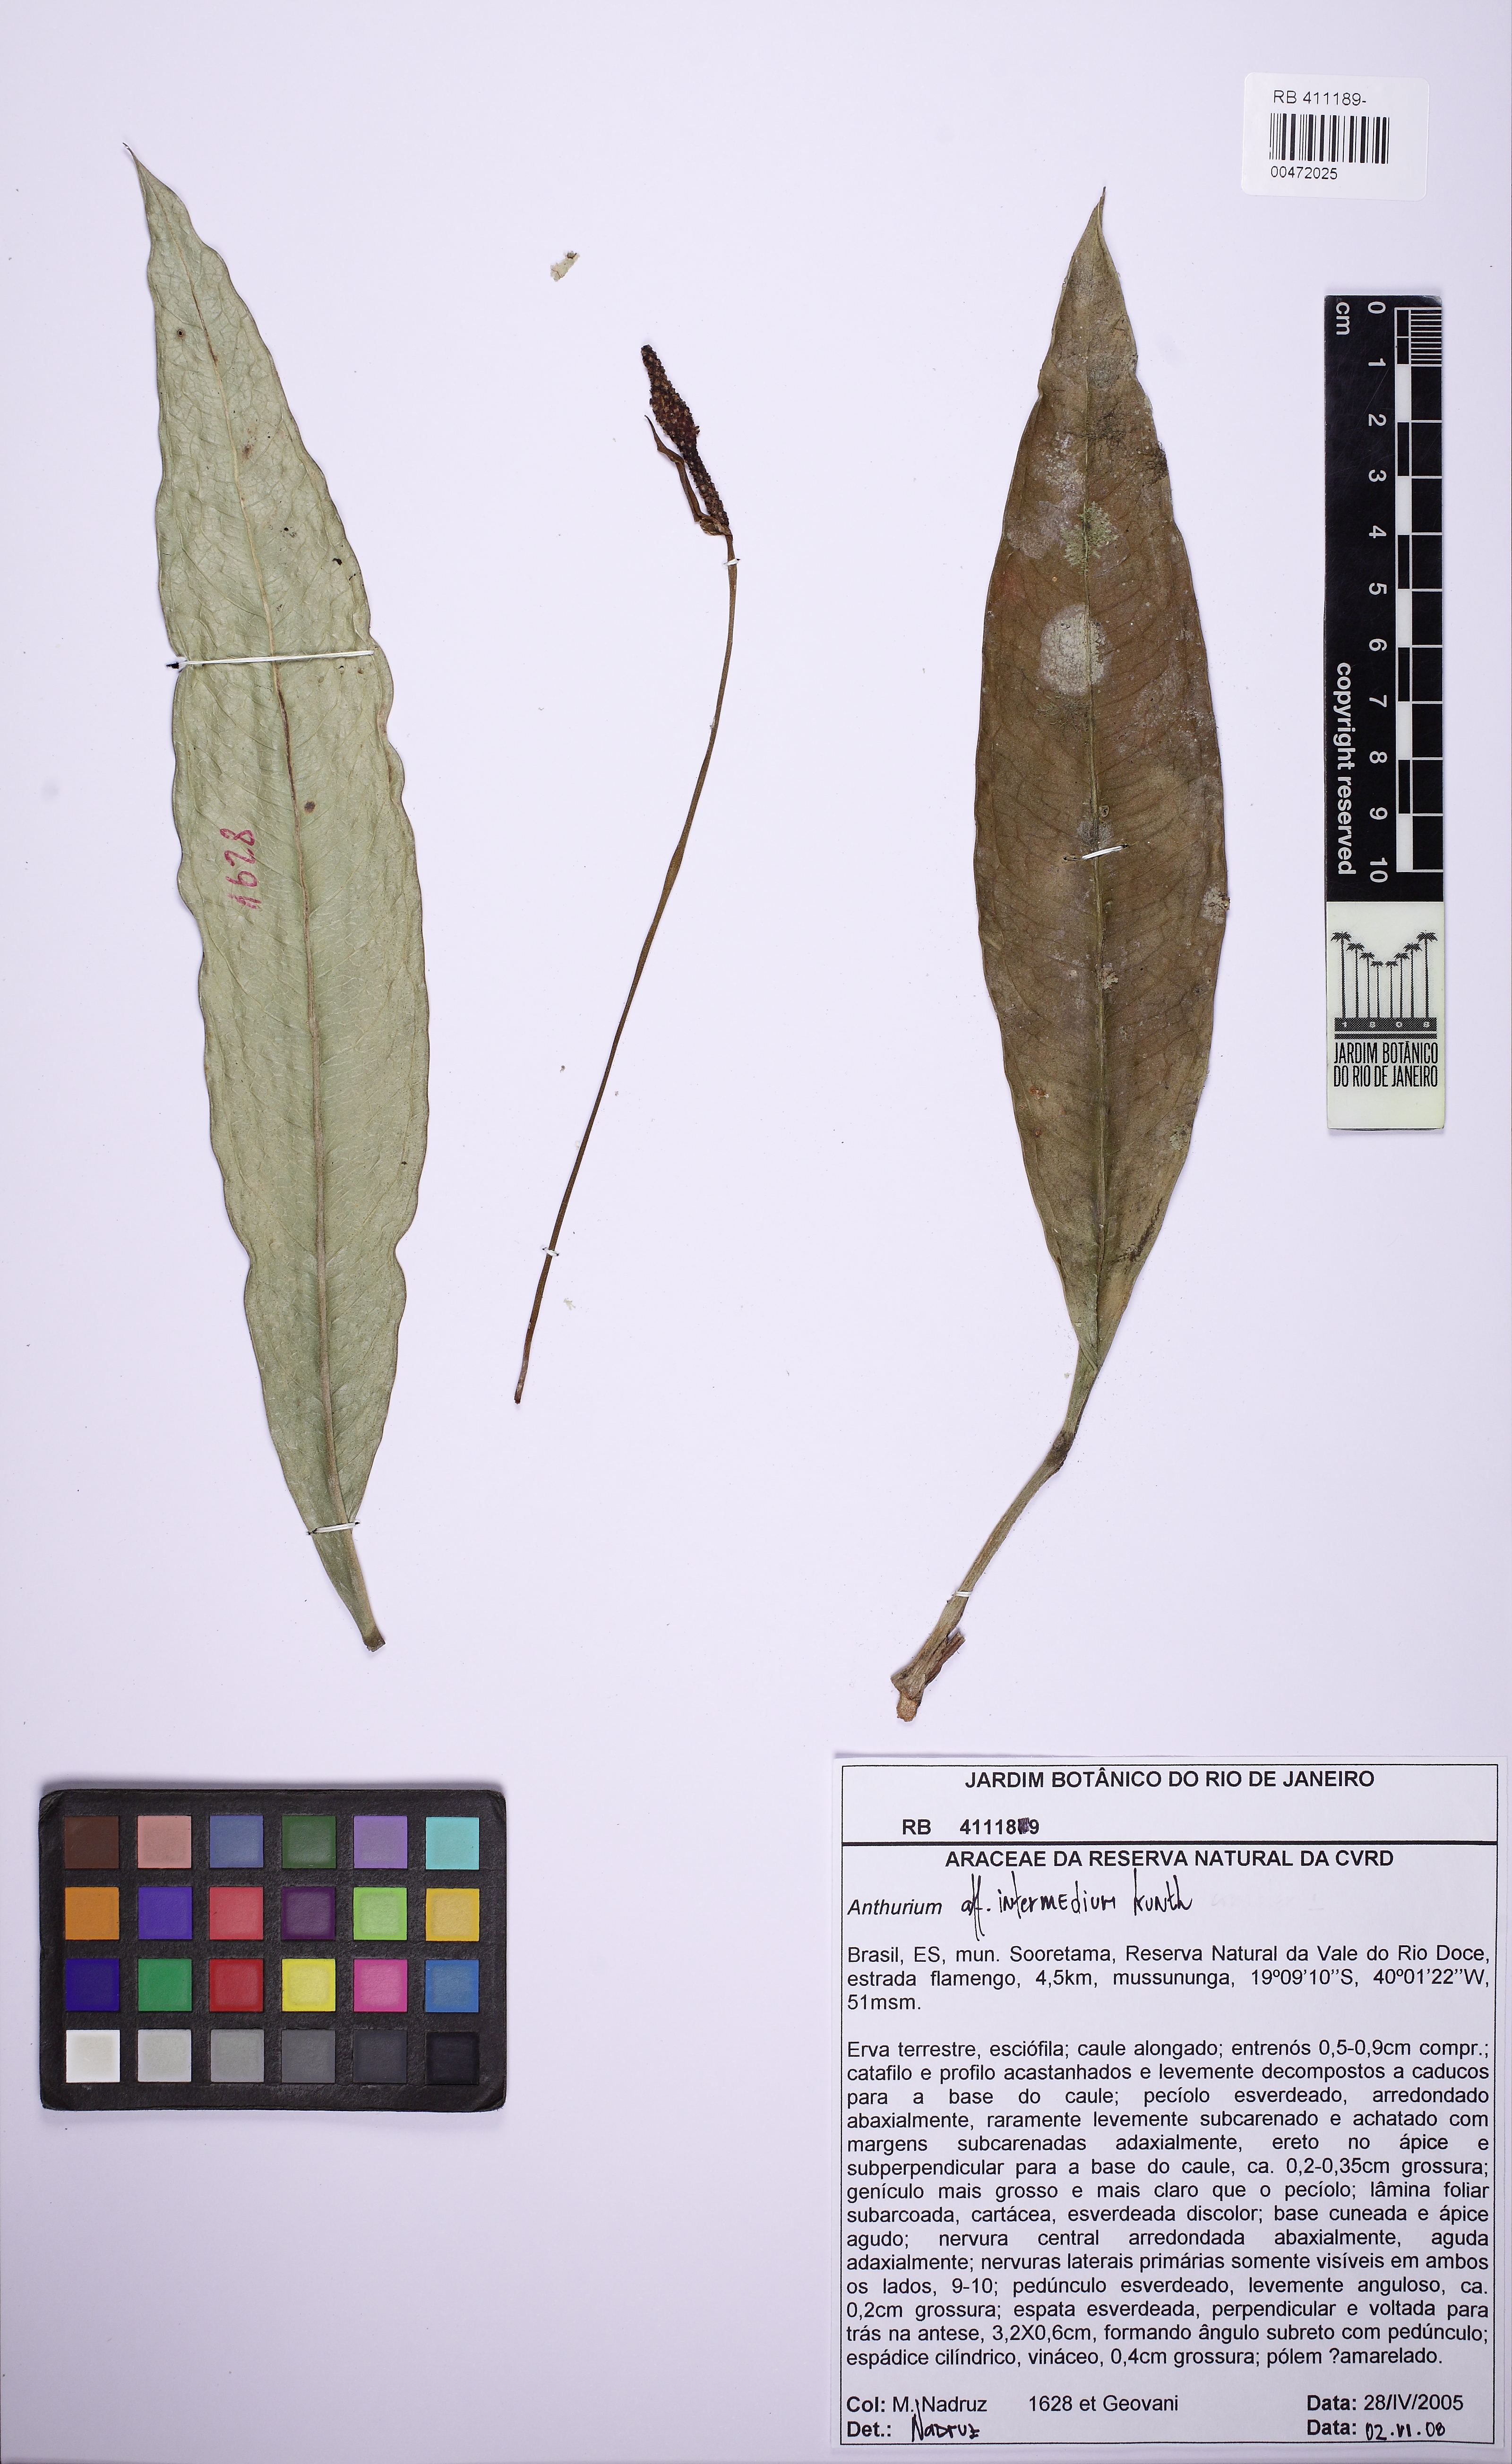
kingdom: Plantae
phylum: Tracheophyta
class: Liliopsida
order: Alismatales
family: Araceae
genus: Anthurium
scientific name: Anthurium intermedium
